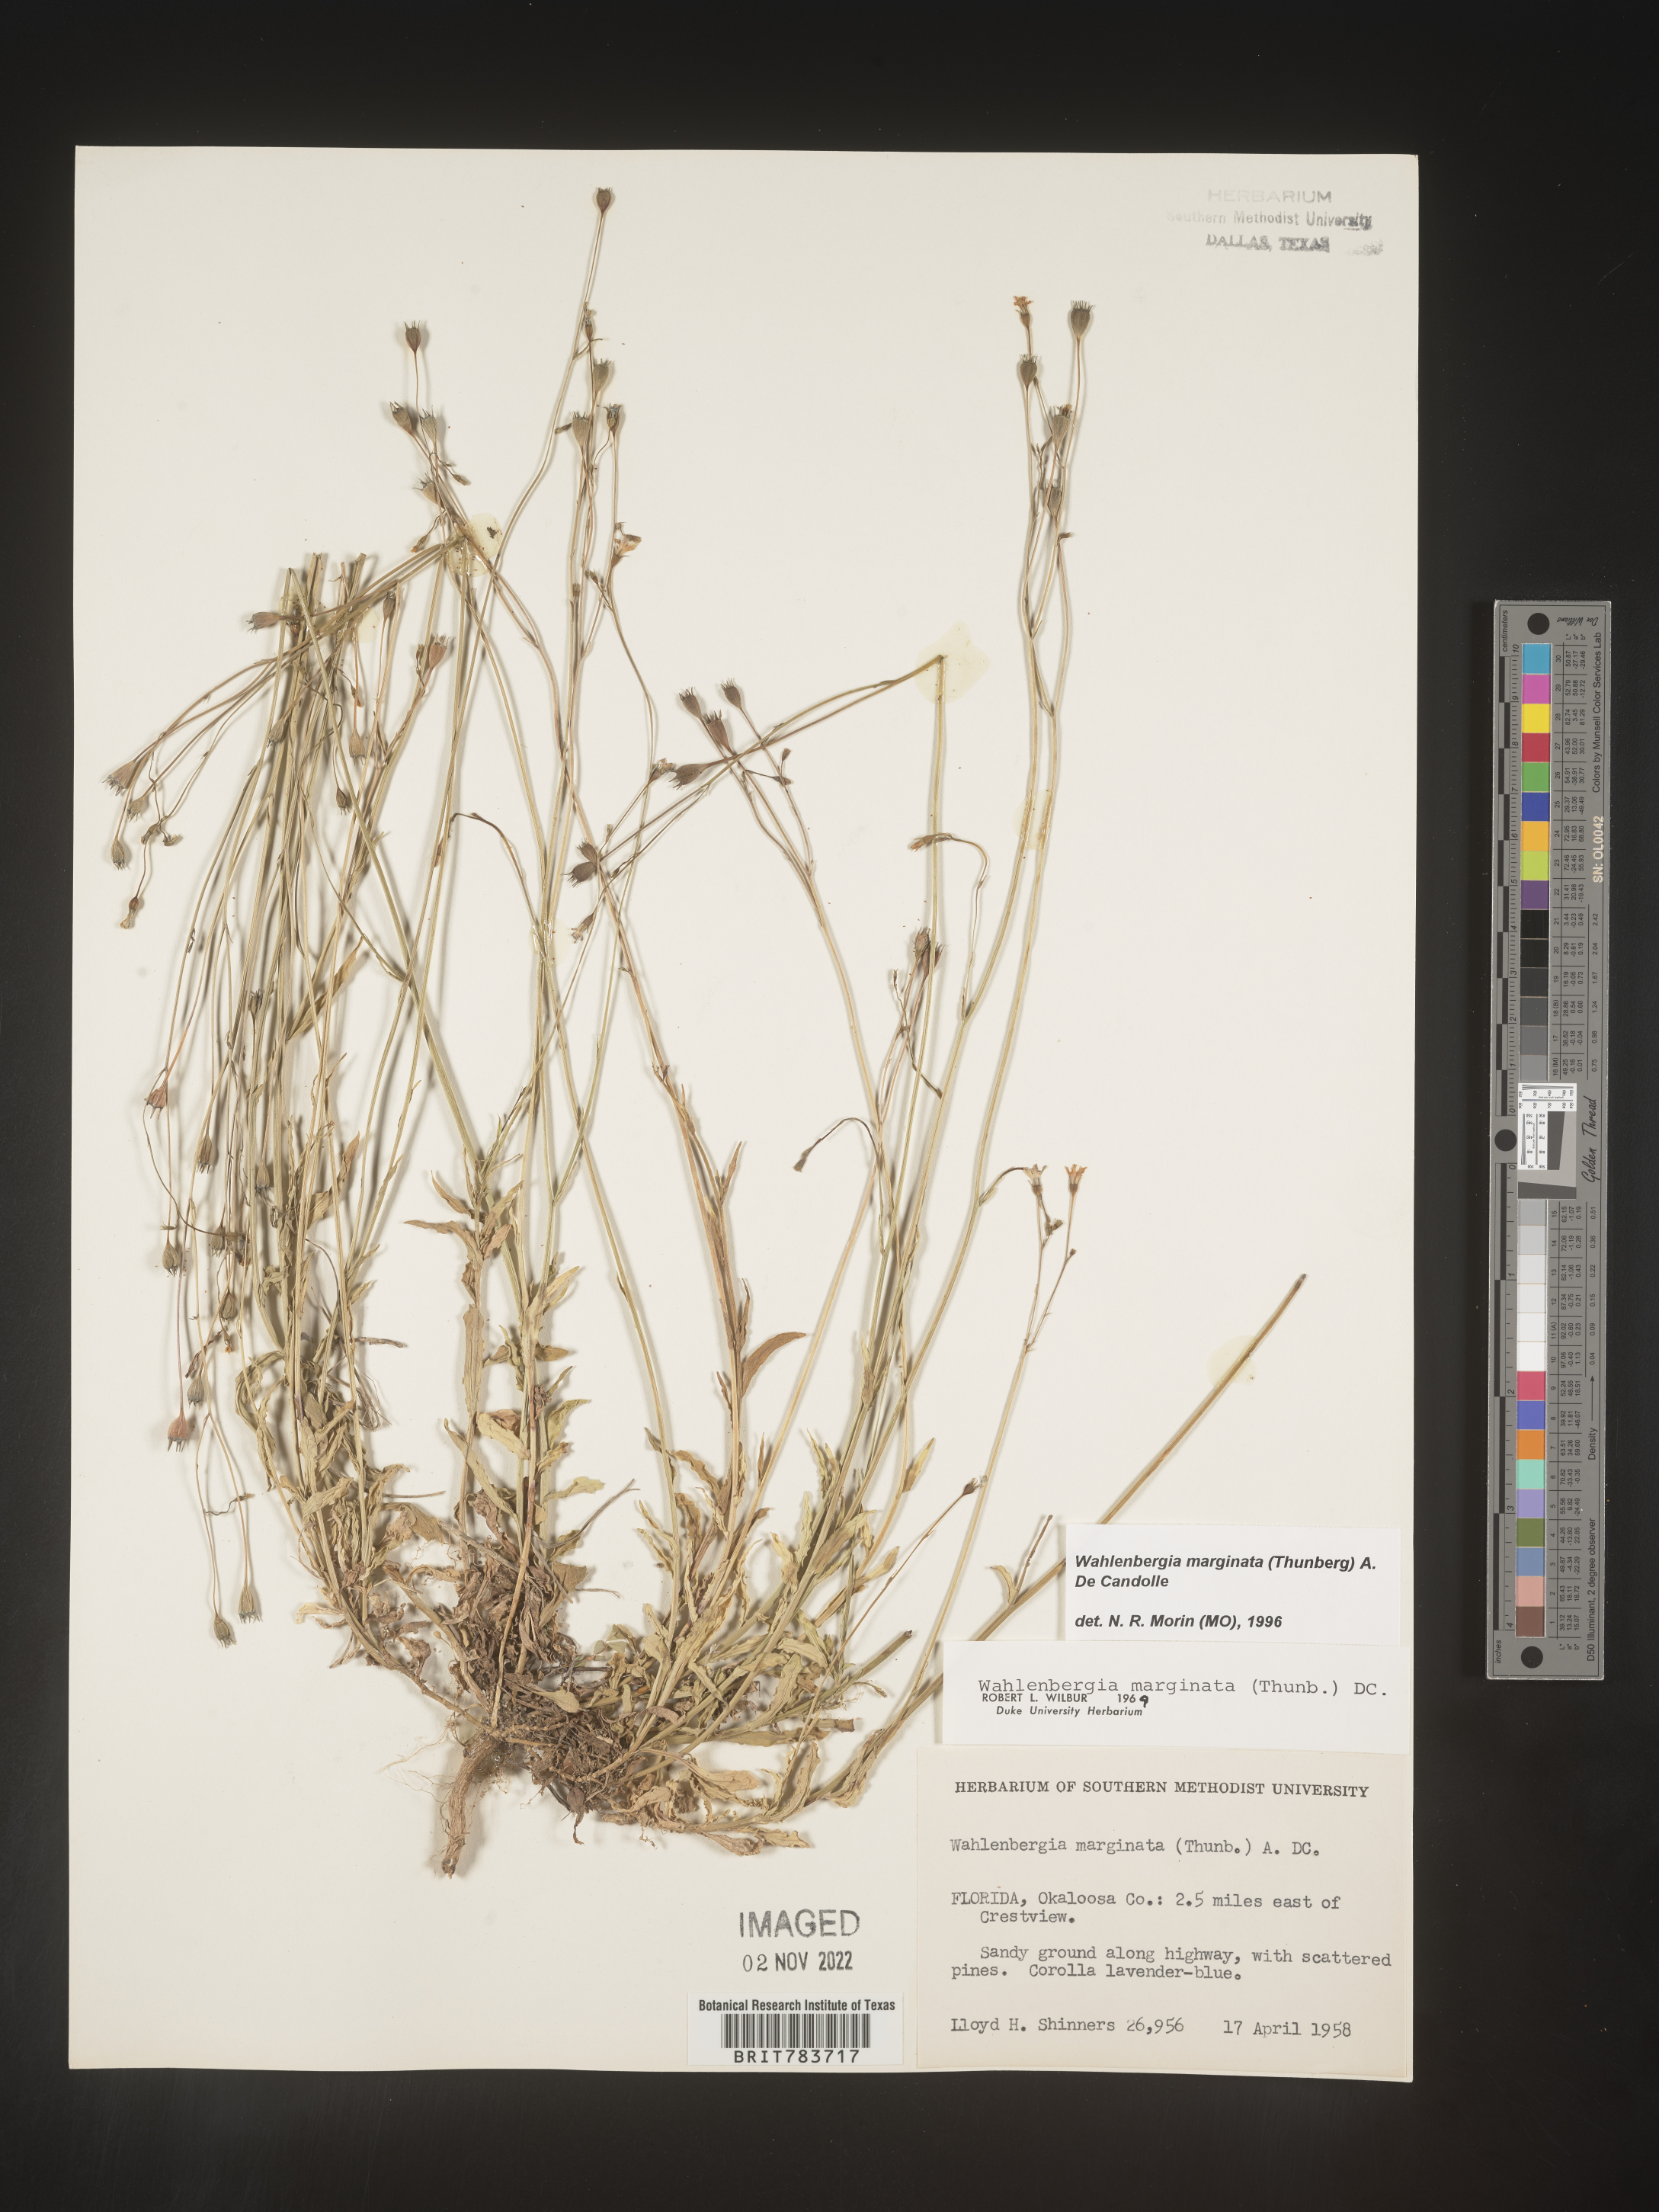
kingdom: Plantae
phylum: Tracheophyta
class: Magnoliopsida
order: Asterales
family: Campanulaceae
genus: Wahlenbergia
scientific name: Wahlenbergia marginata
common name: Southern rockbell
